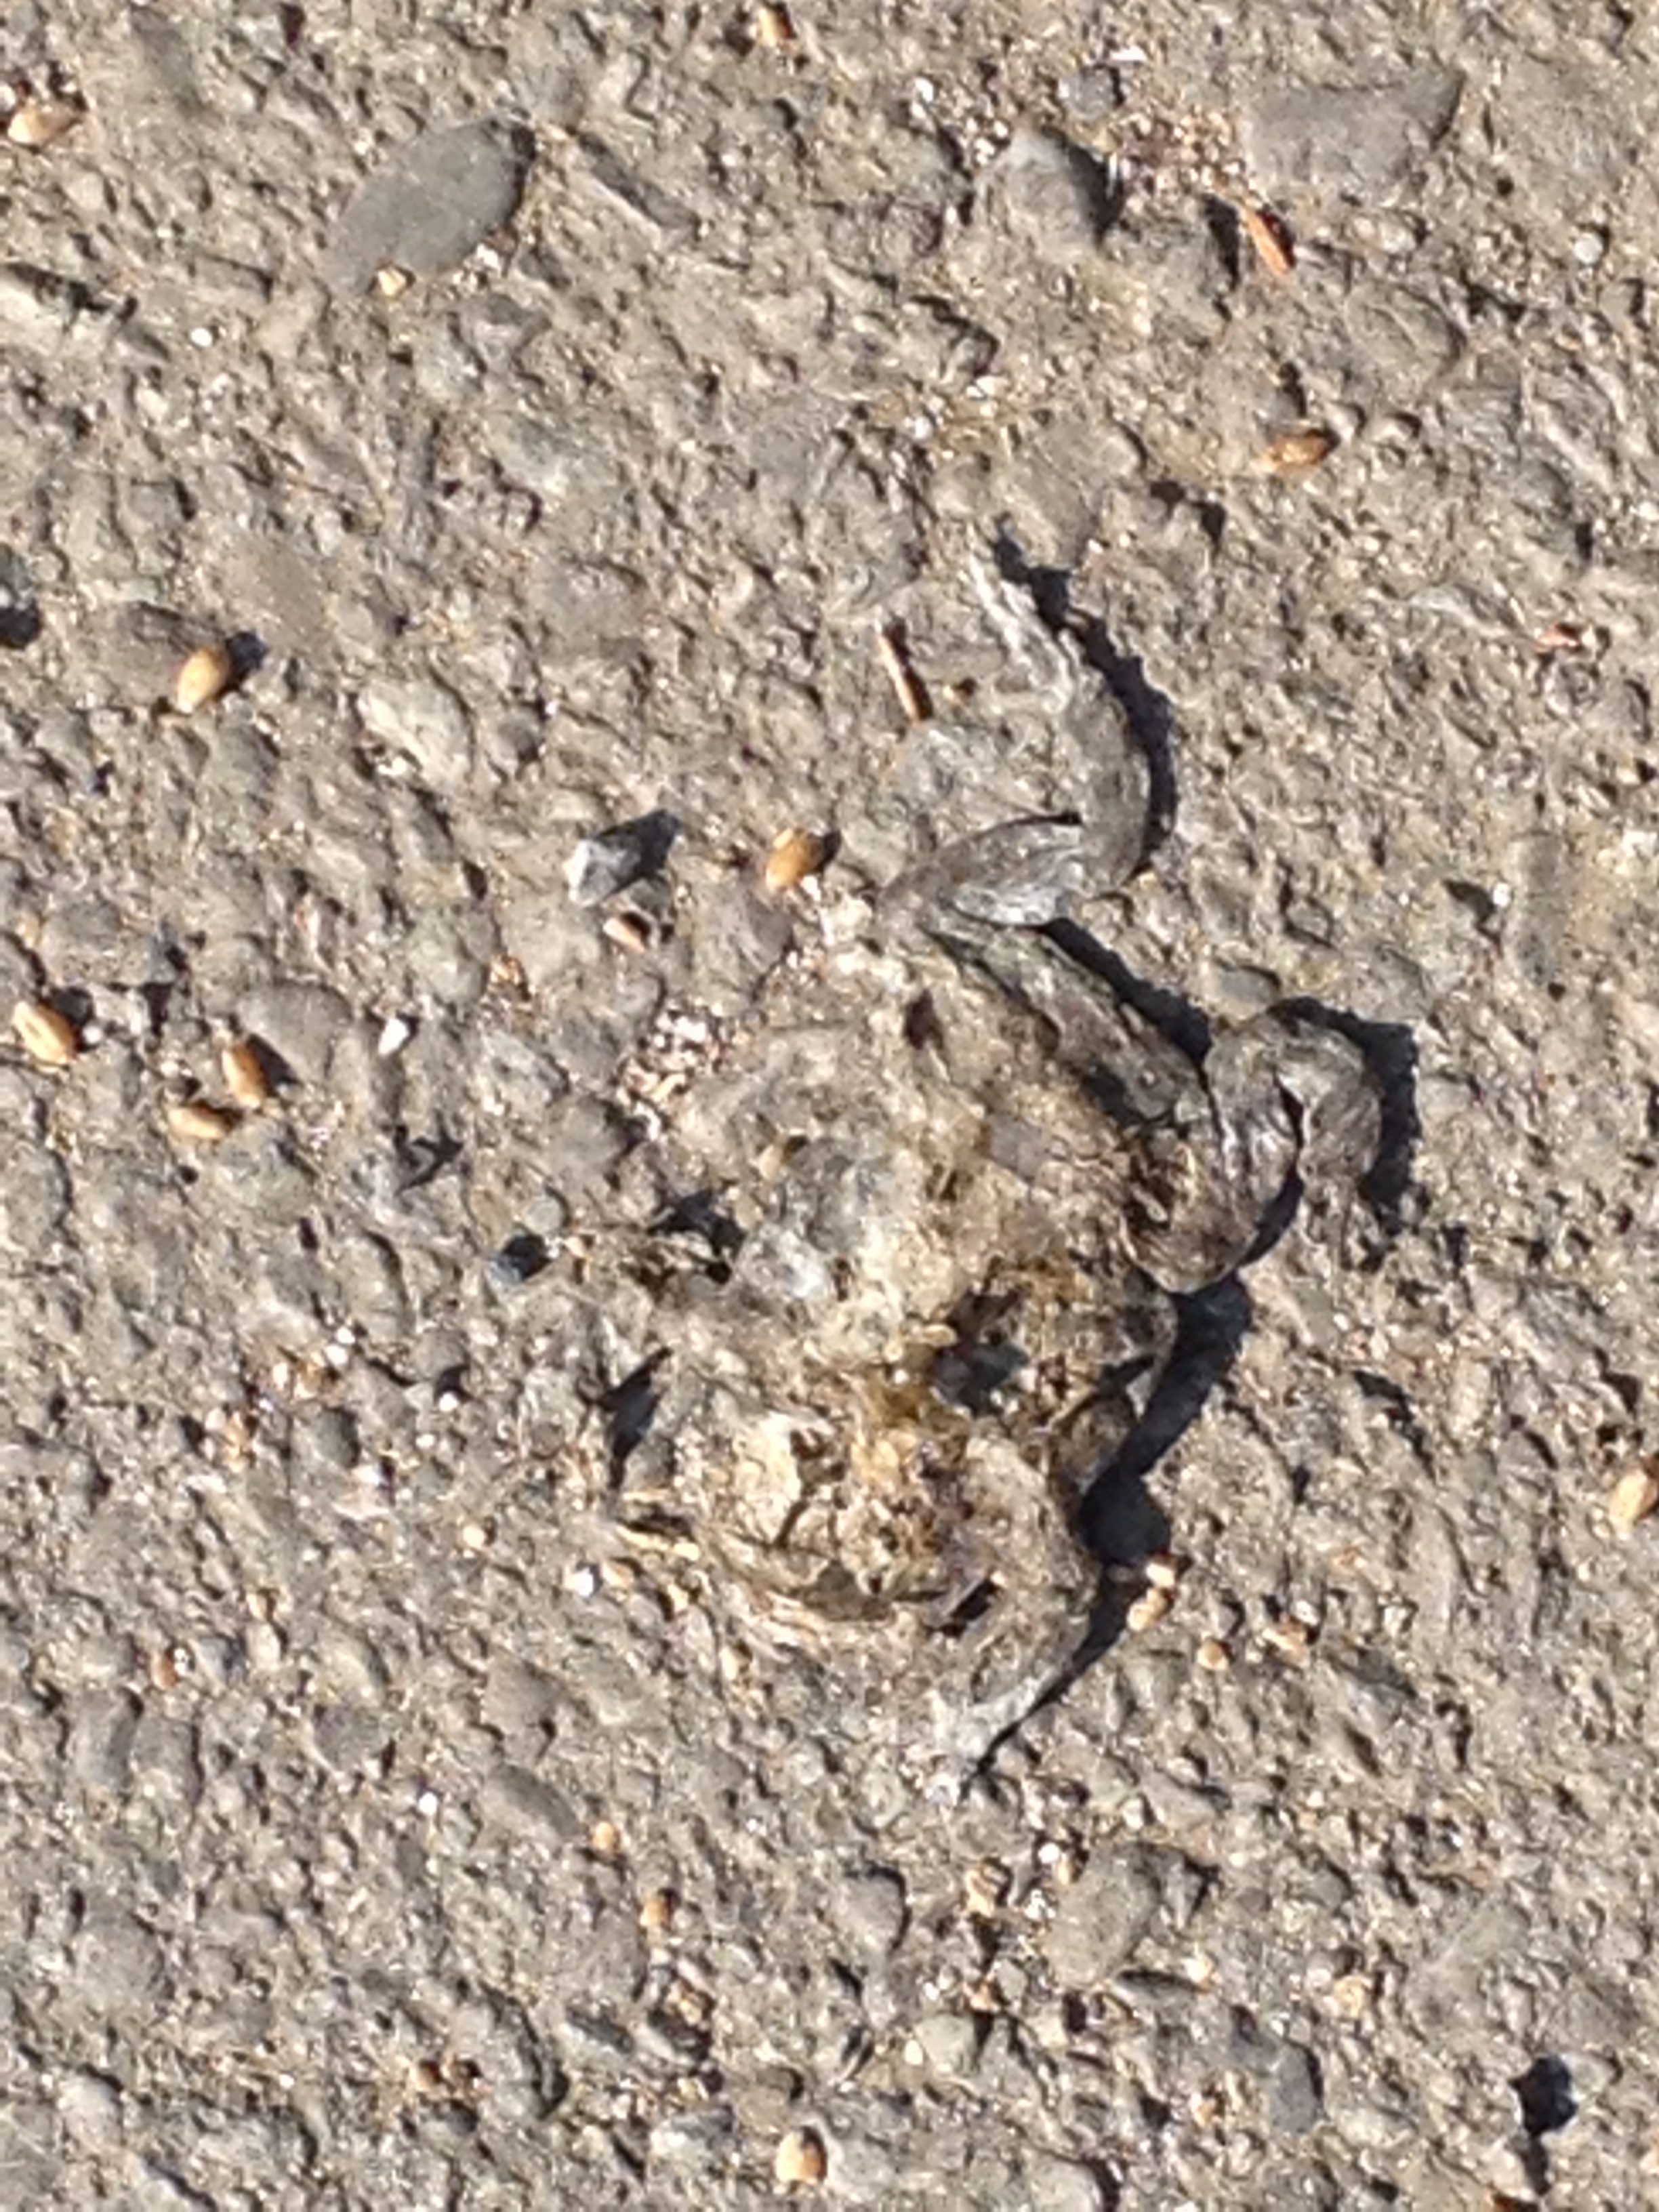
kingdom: Animalia
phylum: Chordata
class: Amphibia
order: Anura
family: Bufonidae
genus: Bufotes
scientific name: Bufotes viridis
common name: European green toad
